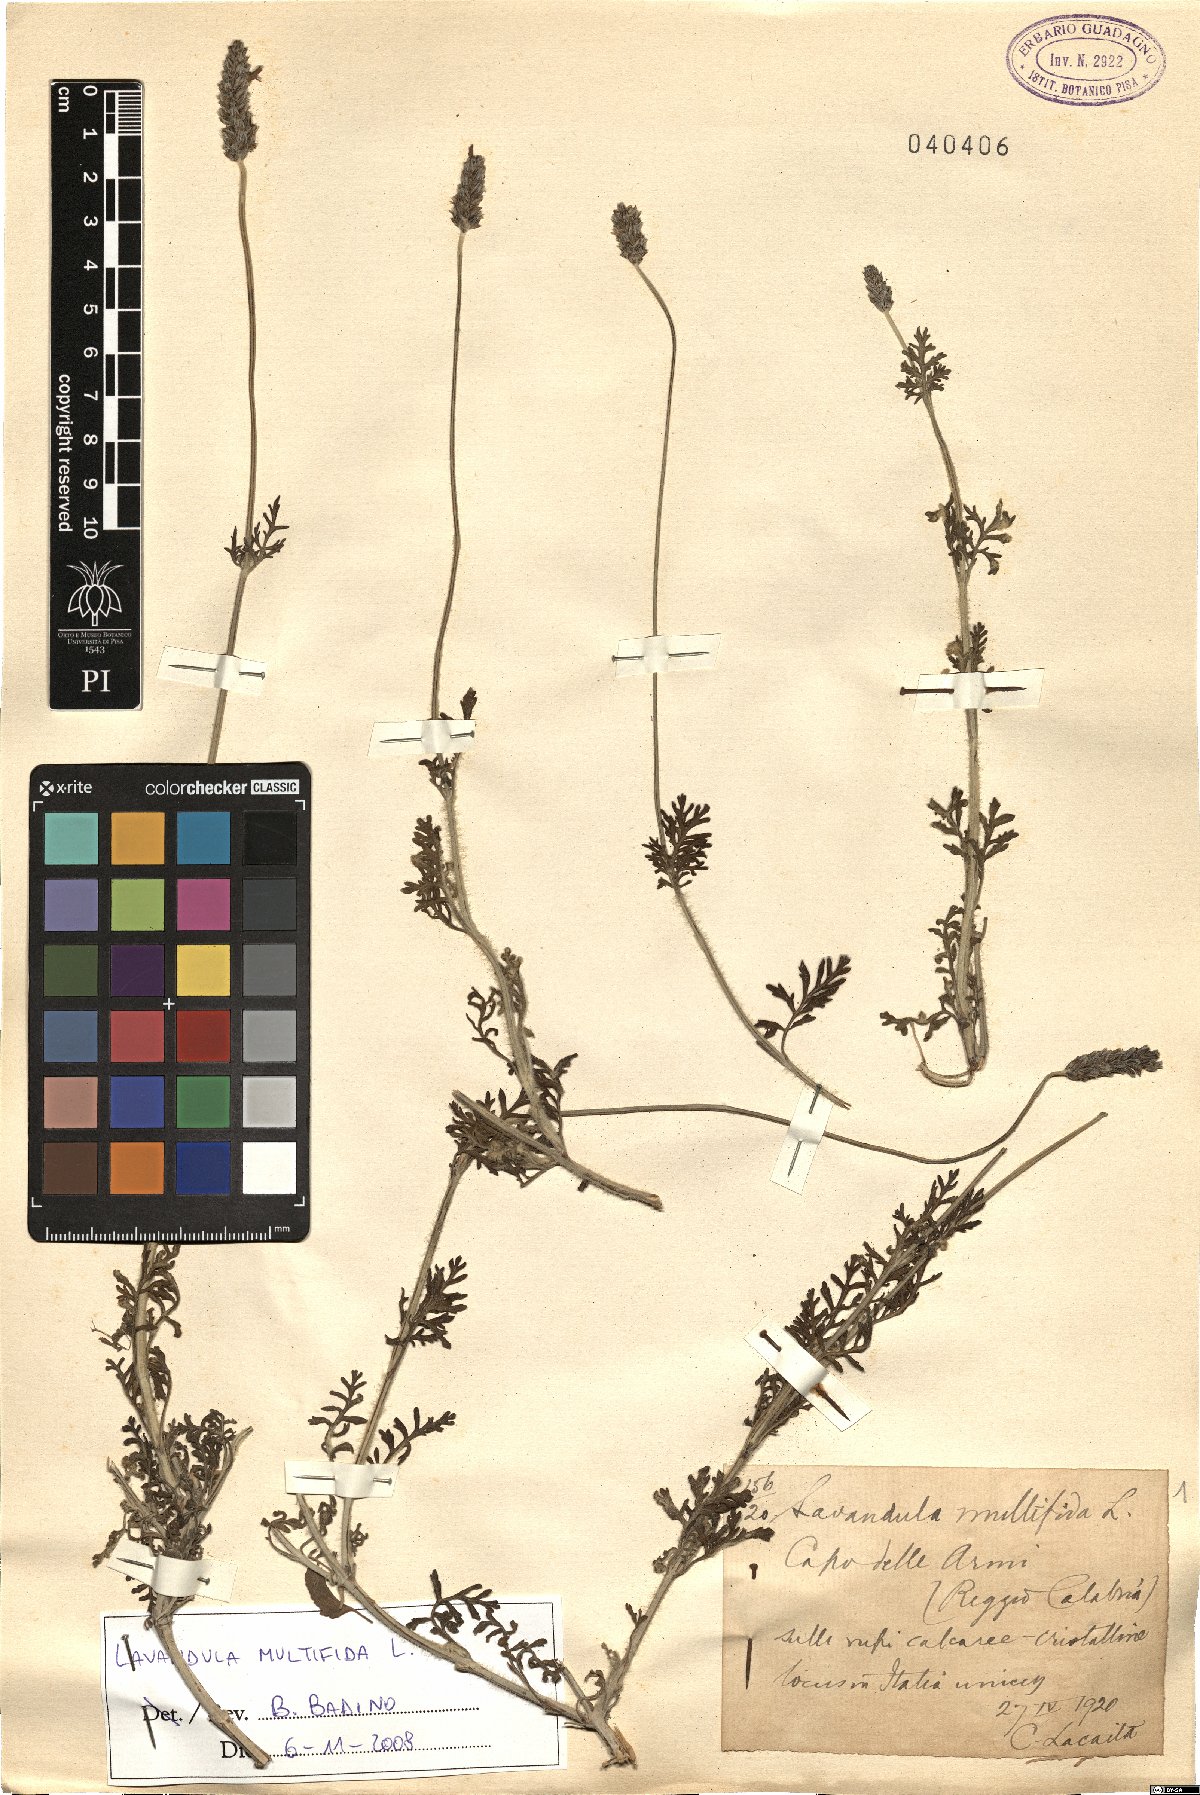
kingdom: Plantae
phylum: Tracheophyta
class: Magnoliopsida
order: Lamiales
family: Lamiaceae
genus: Lavandula
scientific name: Lavandula multifida
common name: Fern-leaf lavender
